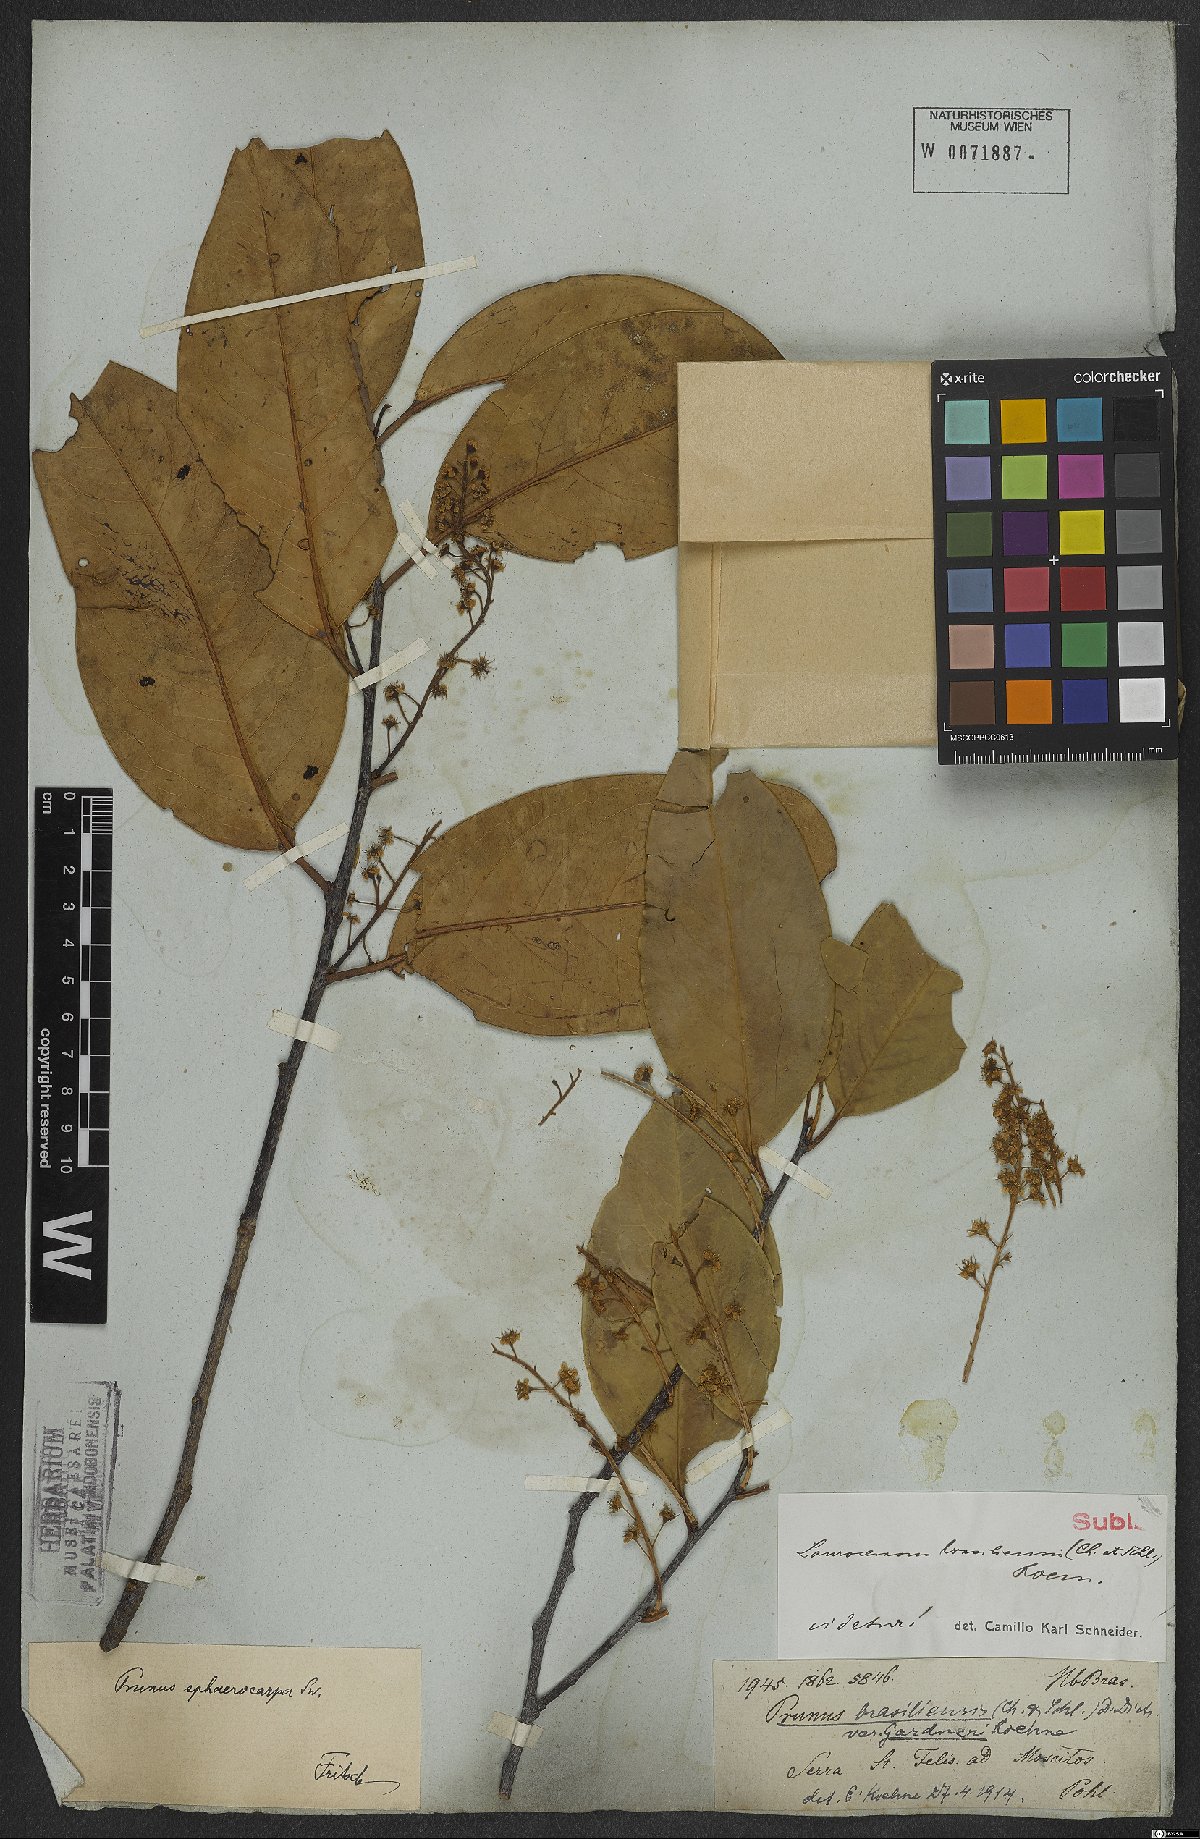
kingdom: Plantae
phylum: Tracheophyta
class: Magnoliopsida
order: Rosales
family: Rosaceae
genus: Prunus
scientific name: Prunus brasiliensis
